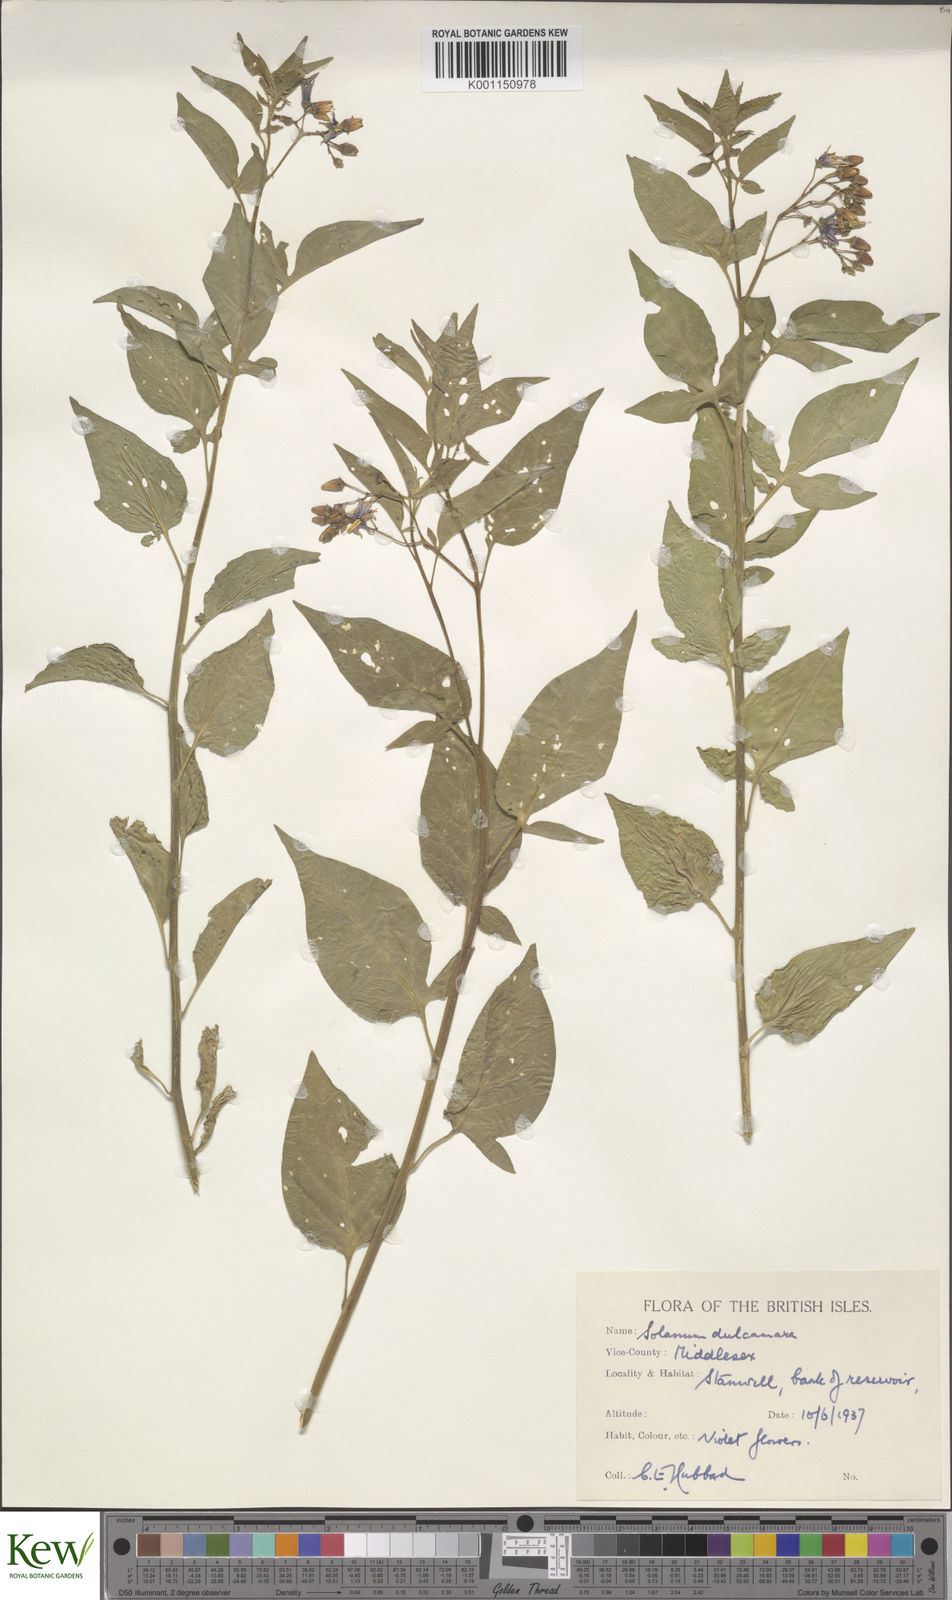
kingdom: Plantae
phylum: Tracheophyta
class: Magnoliopsida
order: Solanales
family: Solanaceae
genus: Solanum
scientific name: Solanum dulcamara
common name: Climbing nightshade
